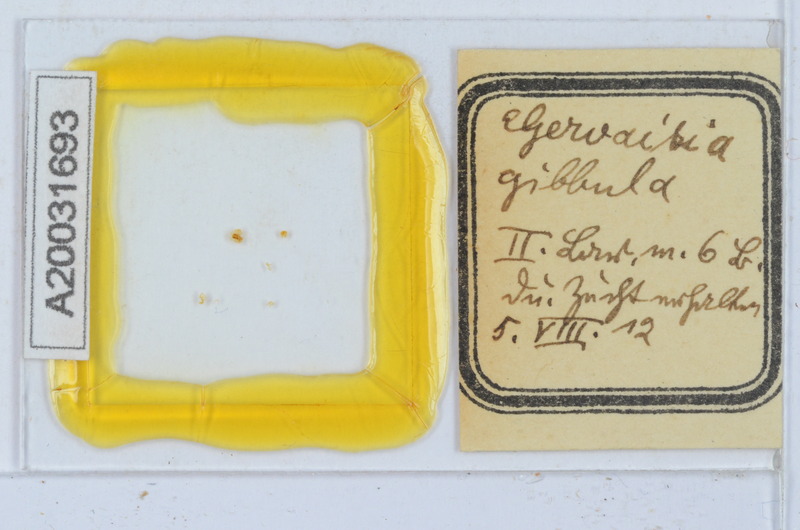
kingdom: Animalia
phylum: Arthropoda
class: Diplopoda
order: Glomerida
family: Glomeridae
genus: Gervaisia
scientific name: Gervaisia gibbula
